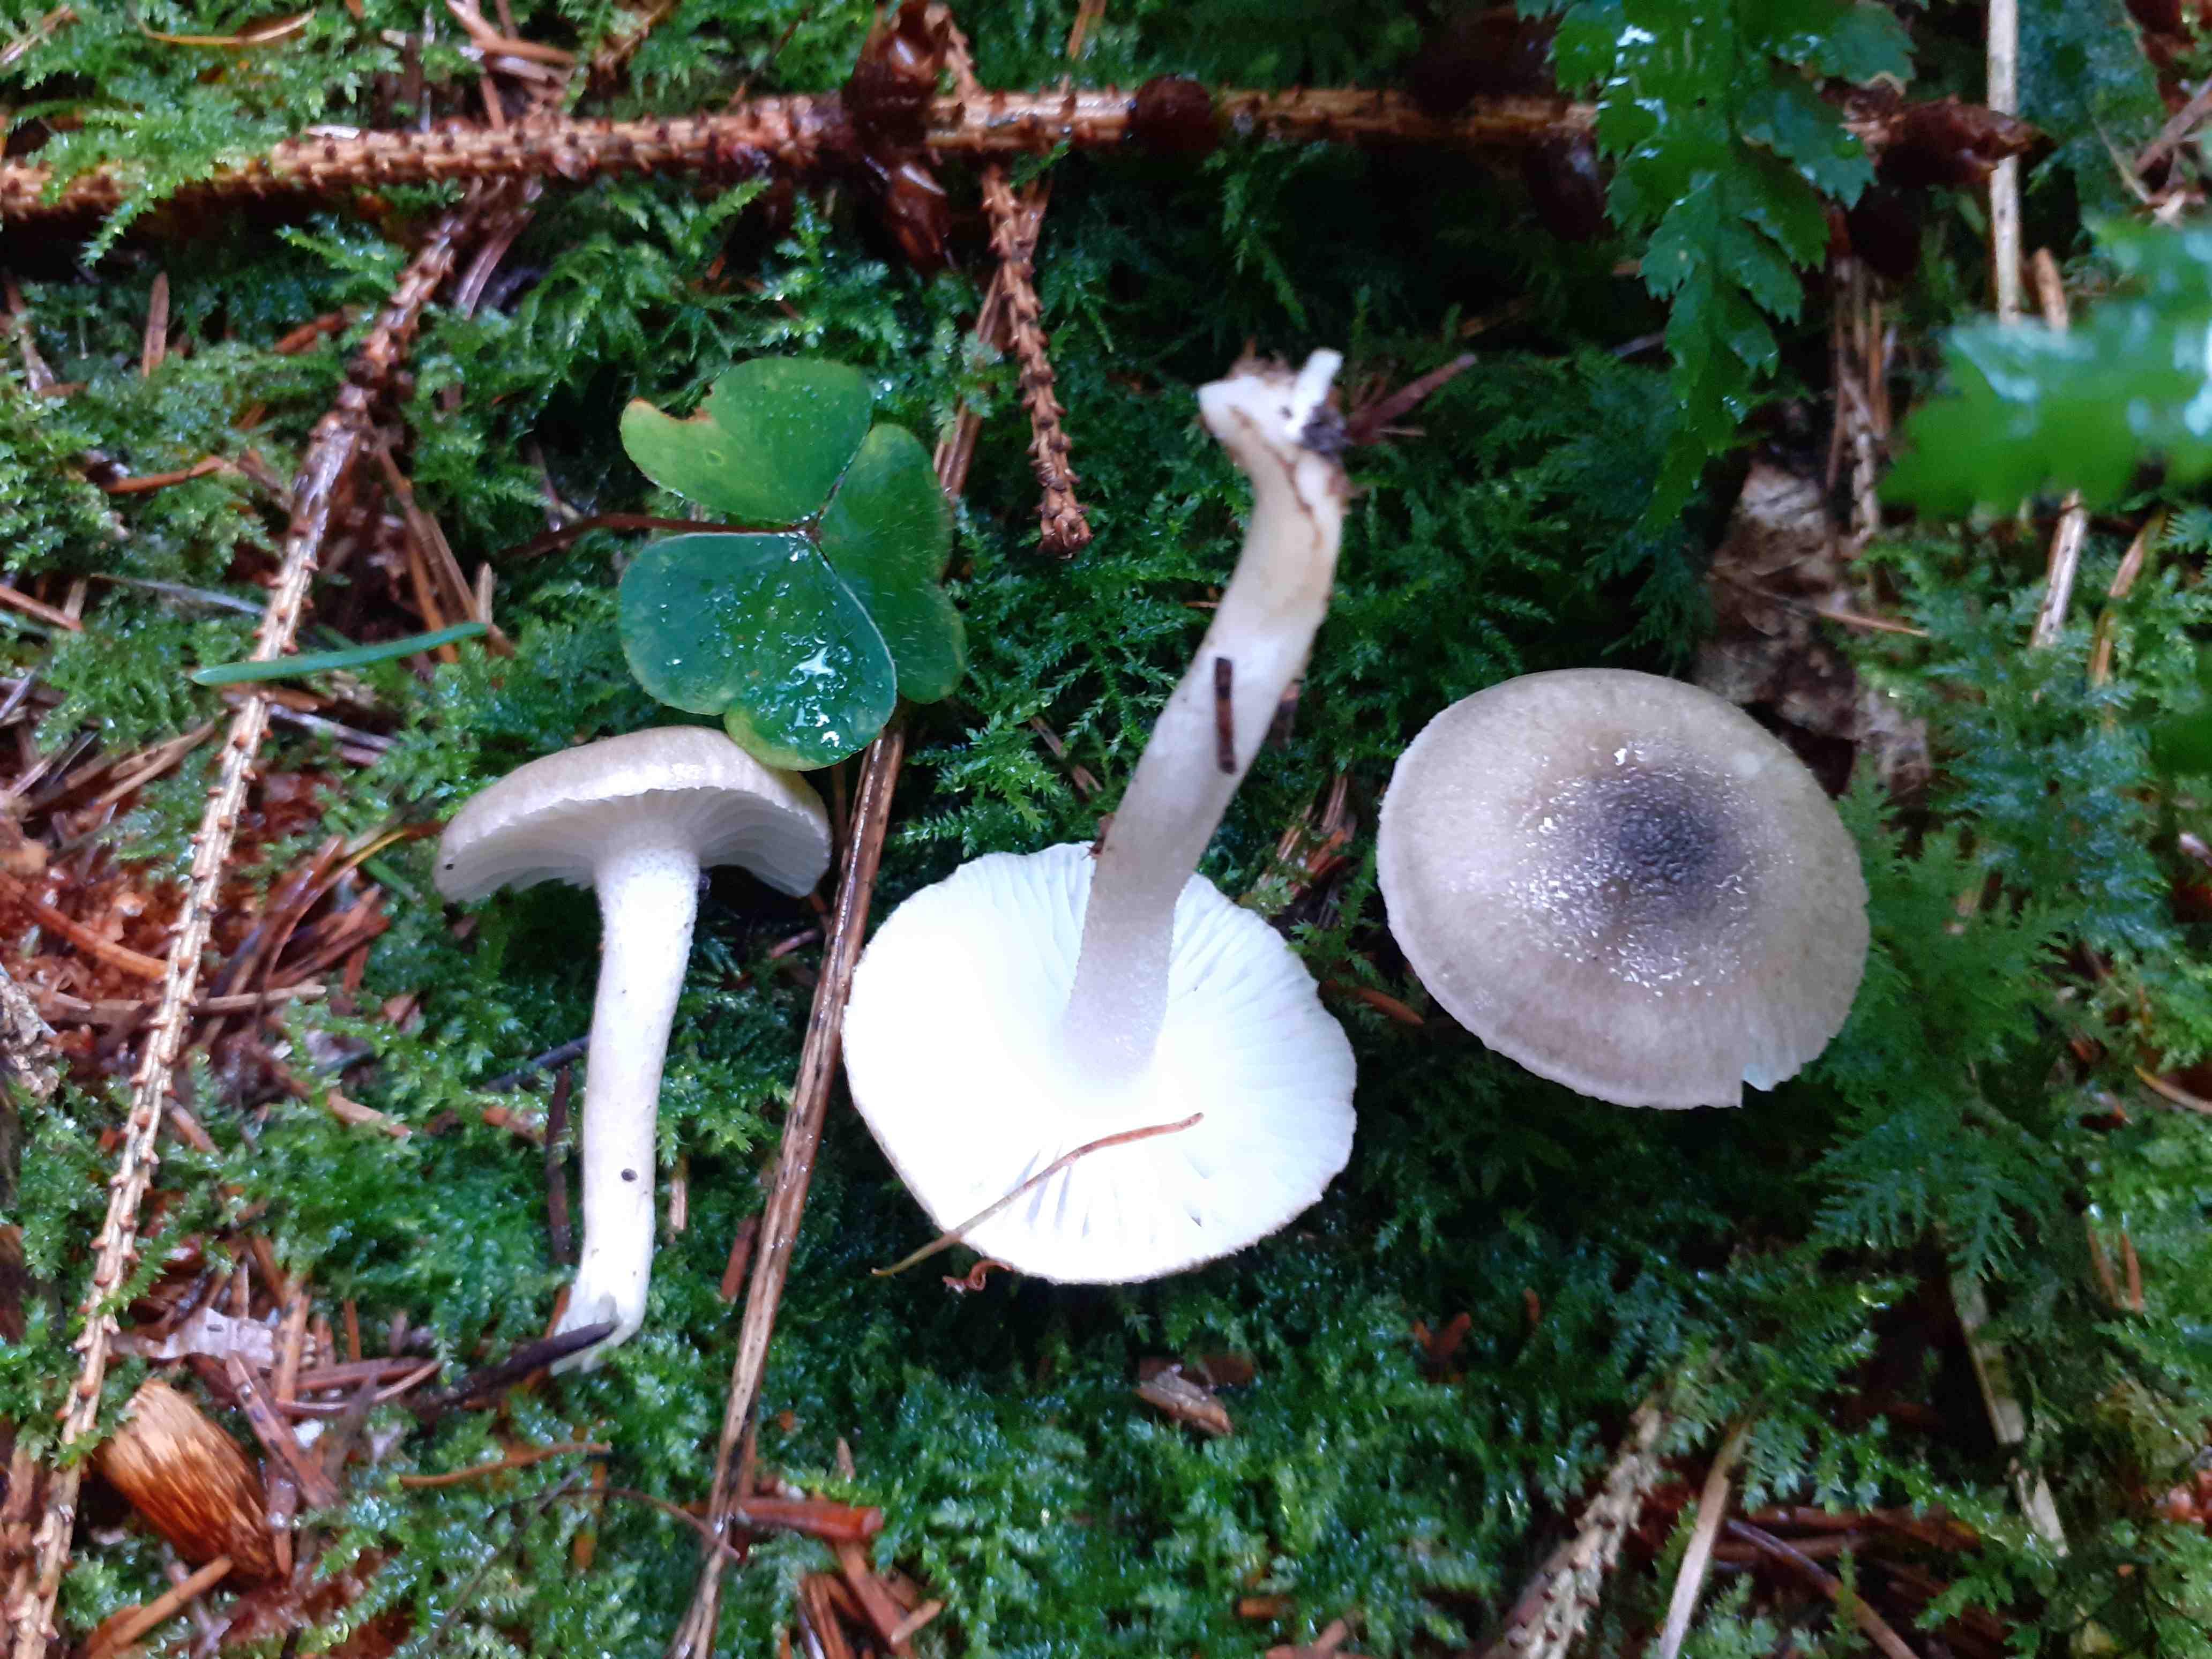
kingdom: Fungi
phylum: Basidiomycota
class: Agaricomycetes
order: Agaricales
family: Hygrophoraceae
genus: Hygrophorus
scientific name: Hygrophorus pustulatus
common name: mørkprikket sneglehat
